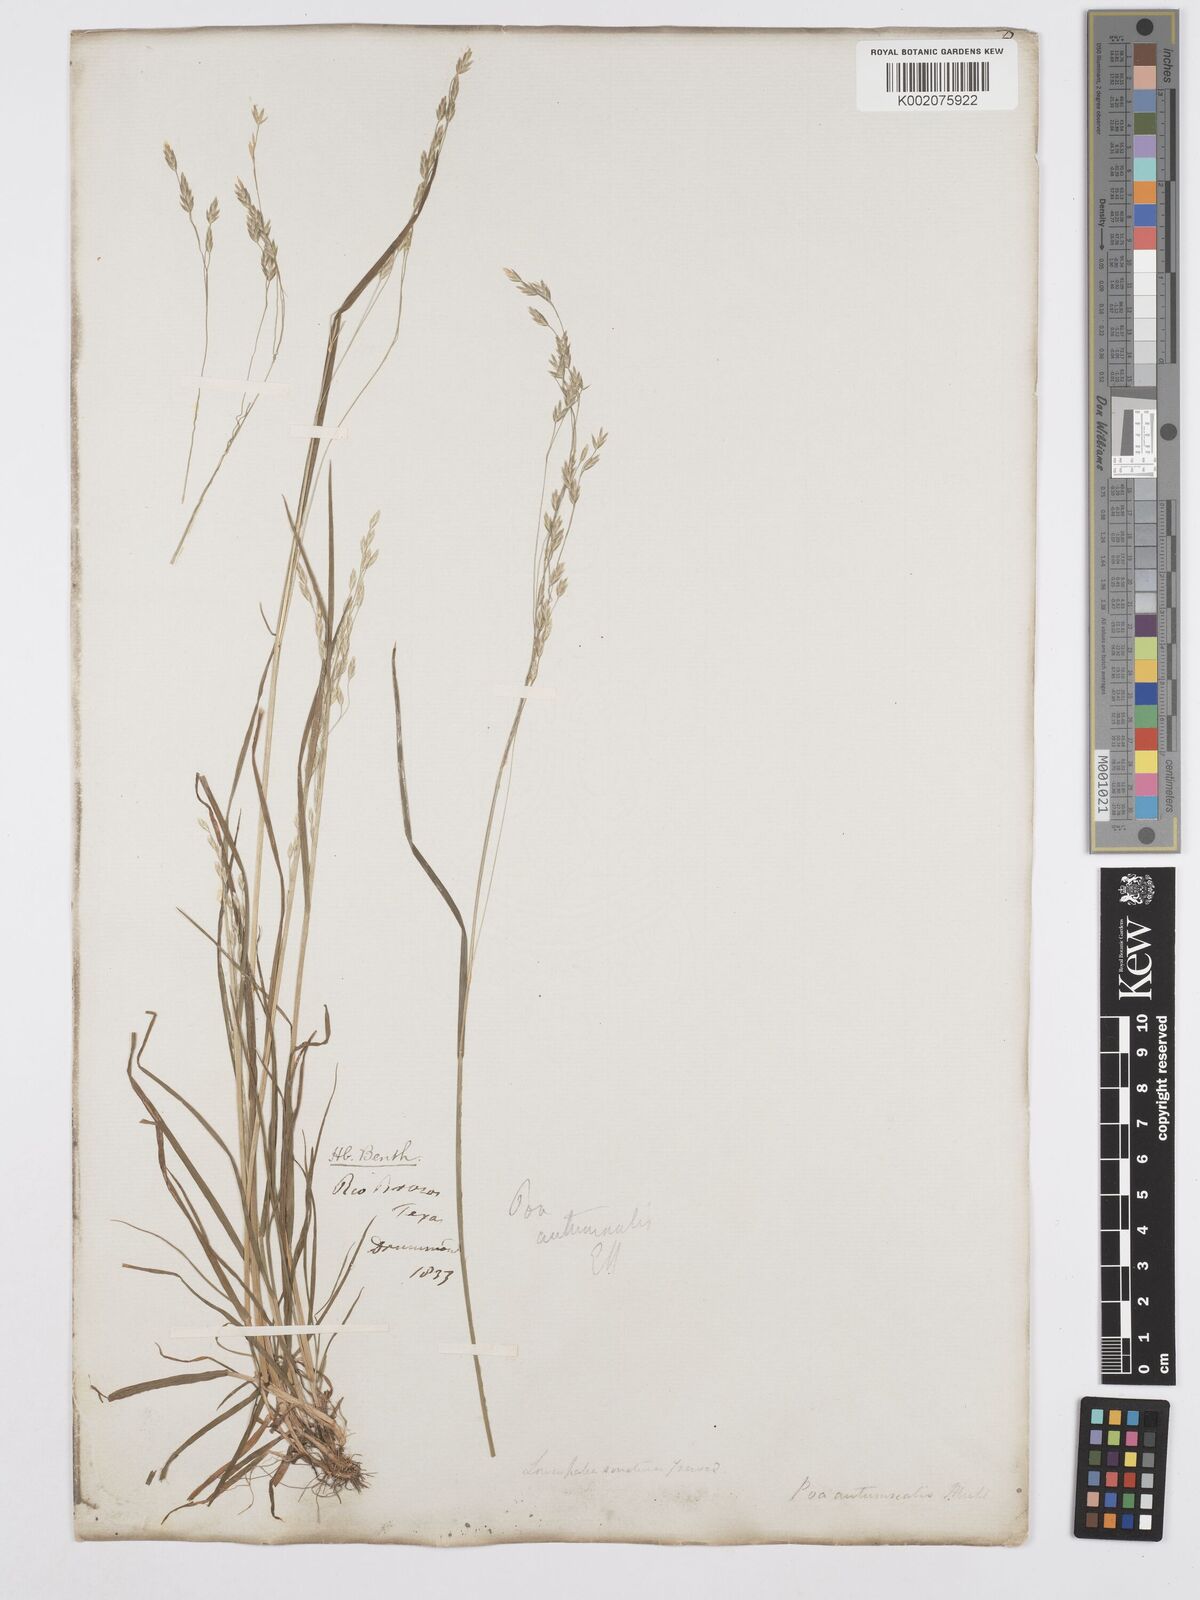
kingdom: Plantae
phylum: Tracheophyta
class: Liliopsida
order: Poales
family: Poaceae
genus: Poa
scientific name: Poa autumnalis
